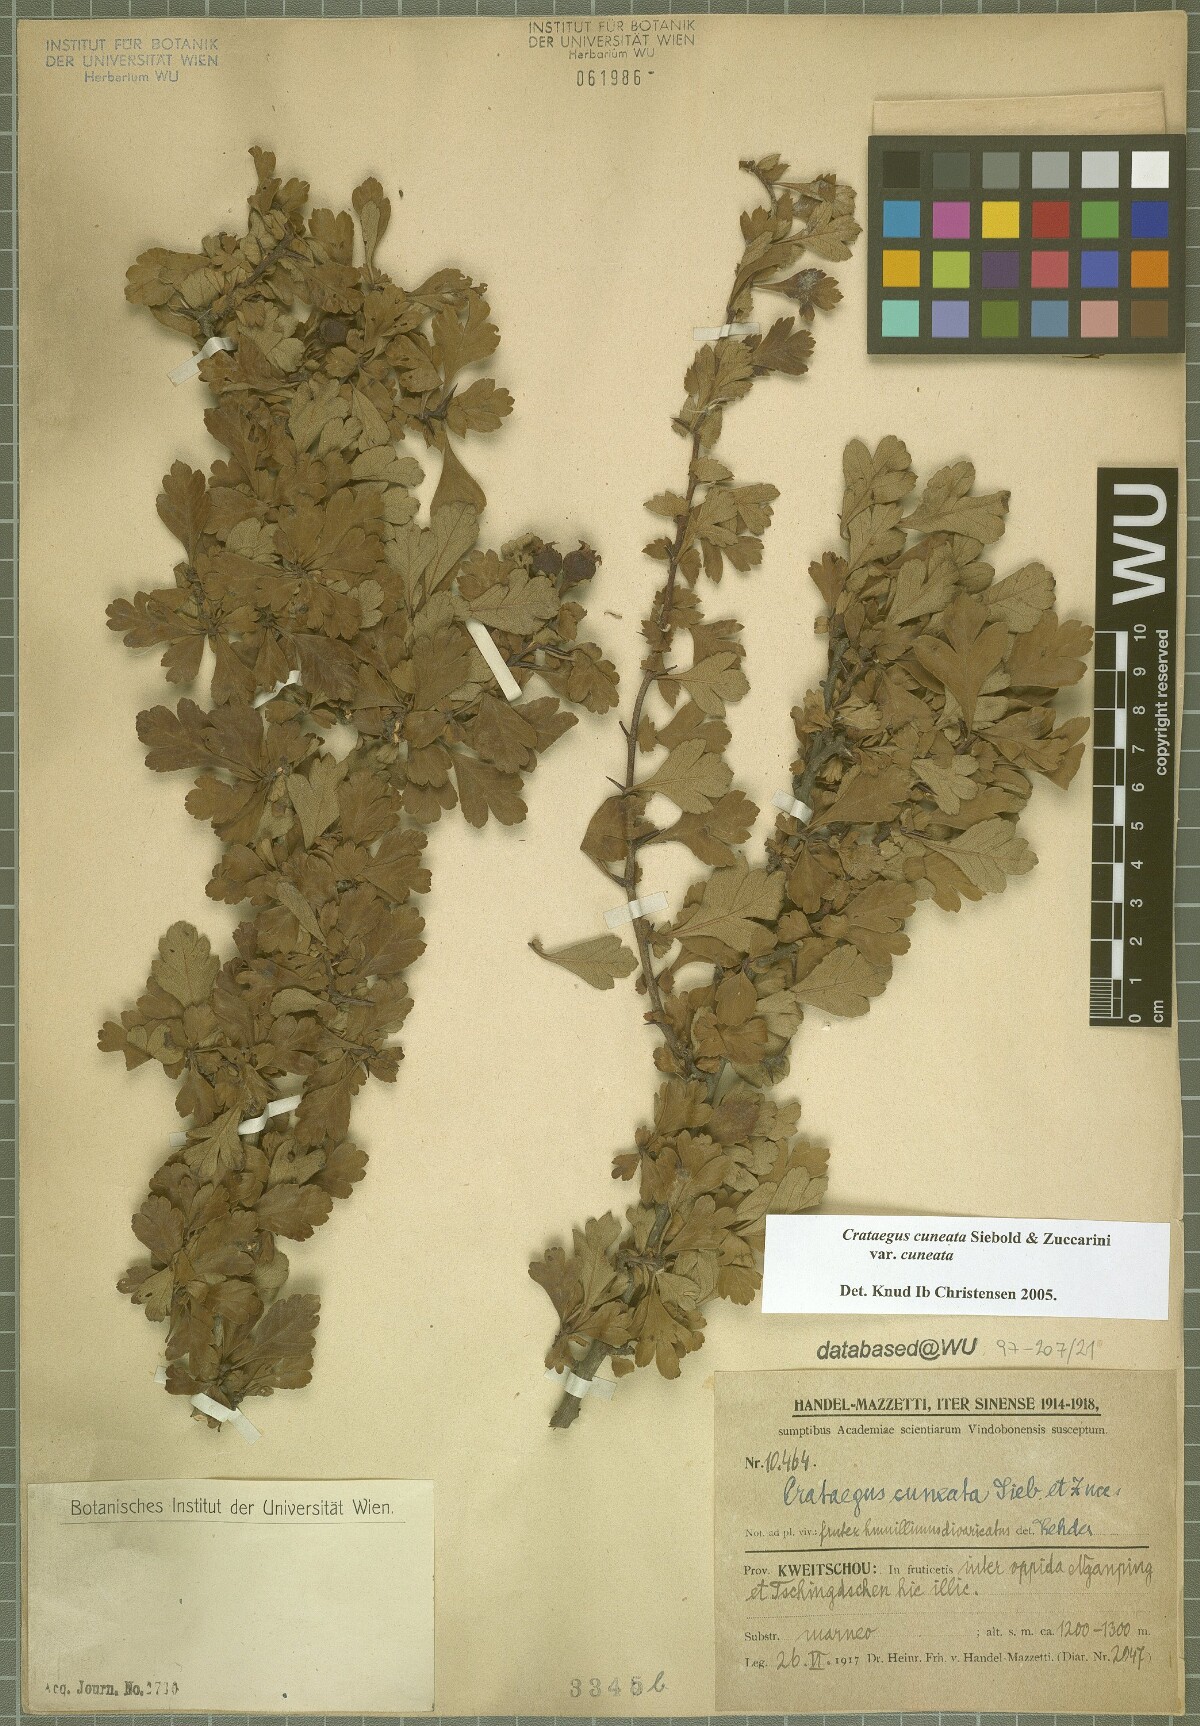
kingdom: Plantae
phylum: Tracheophyta
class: Magnoliopsida
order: Rosales
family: Rosaceae
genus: Crataegus
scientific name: Crataegus cuneata
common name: Chinese hawthorn
